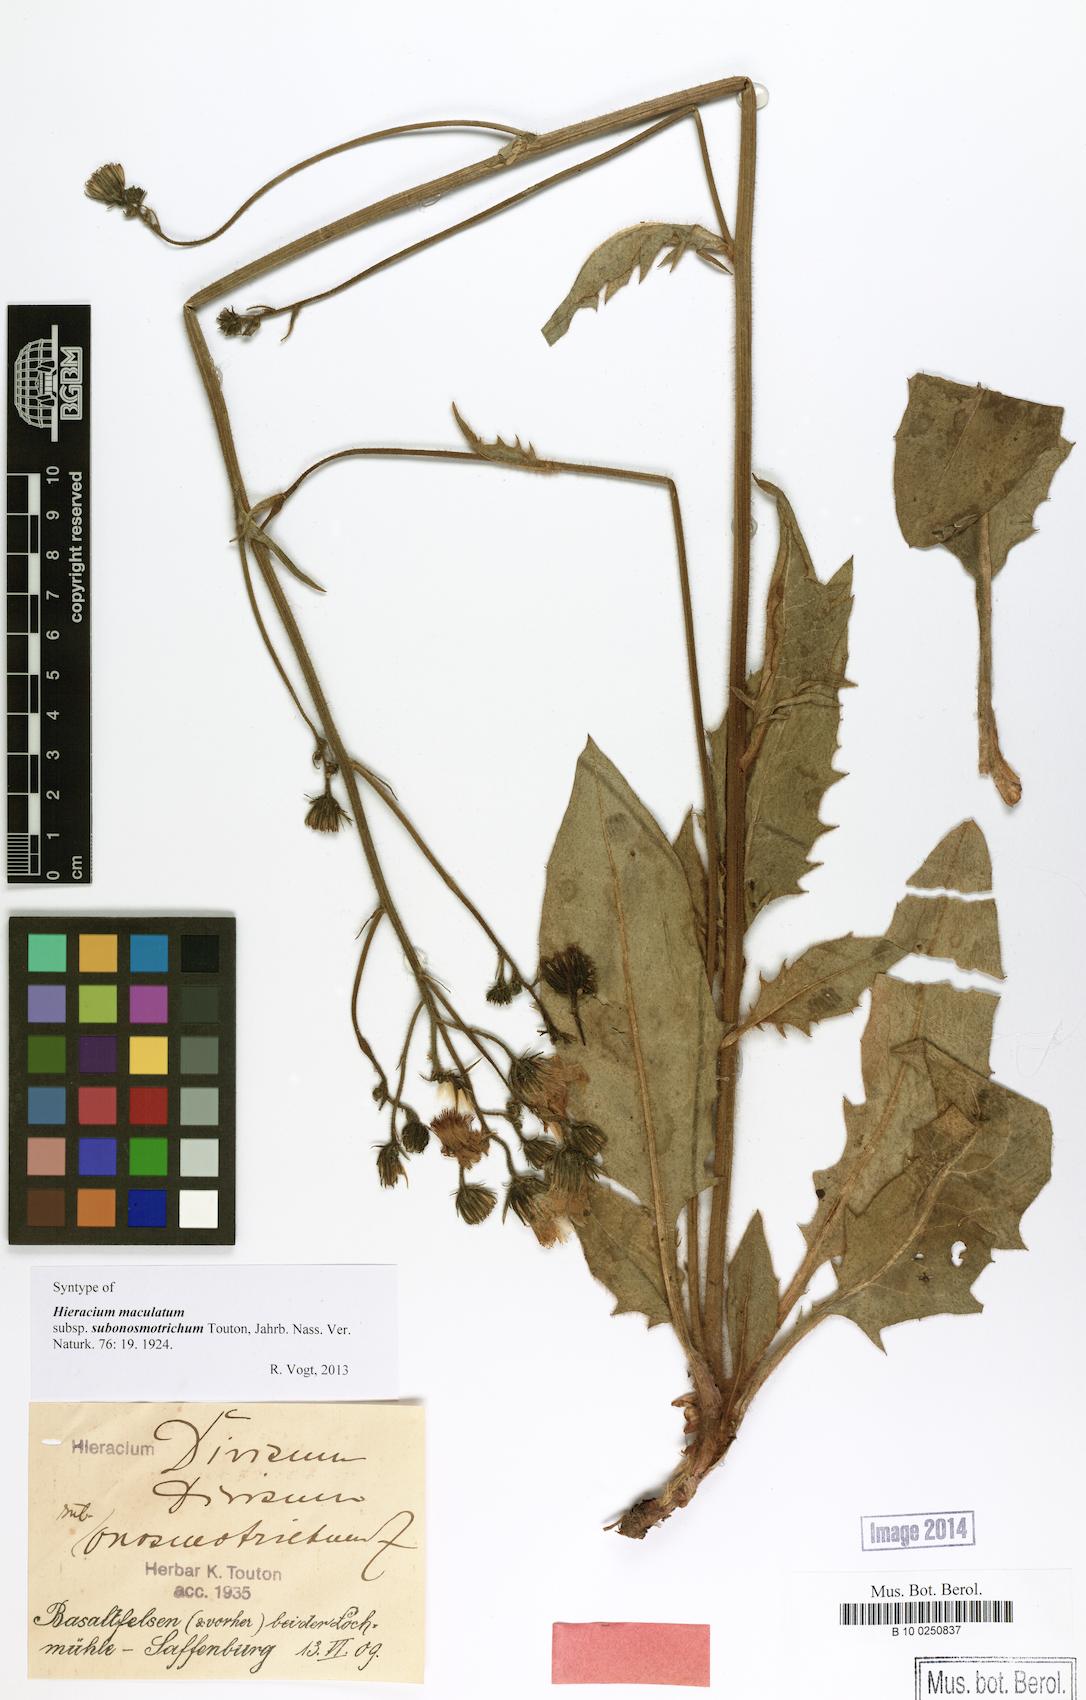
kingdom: Plantae
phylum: Tracheophyta
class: Magnoliopsida
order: Asterales
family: Asteraceae
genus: Hieracium
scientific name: Hieracium maculatum
